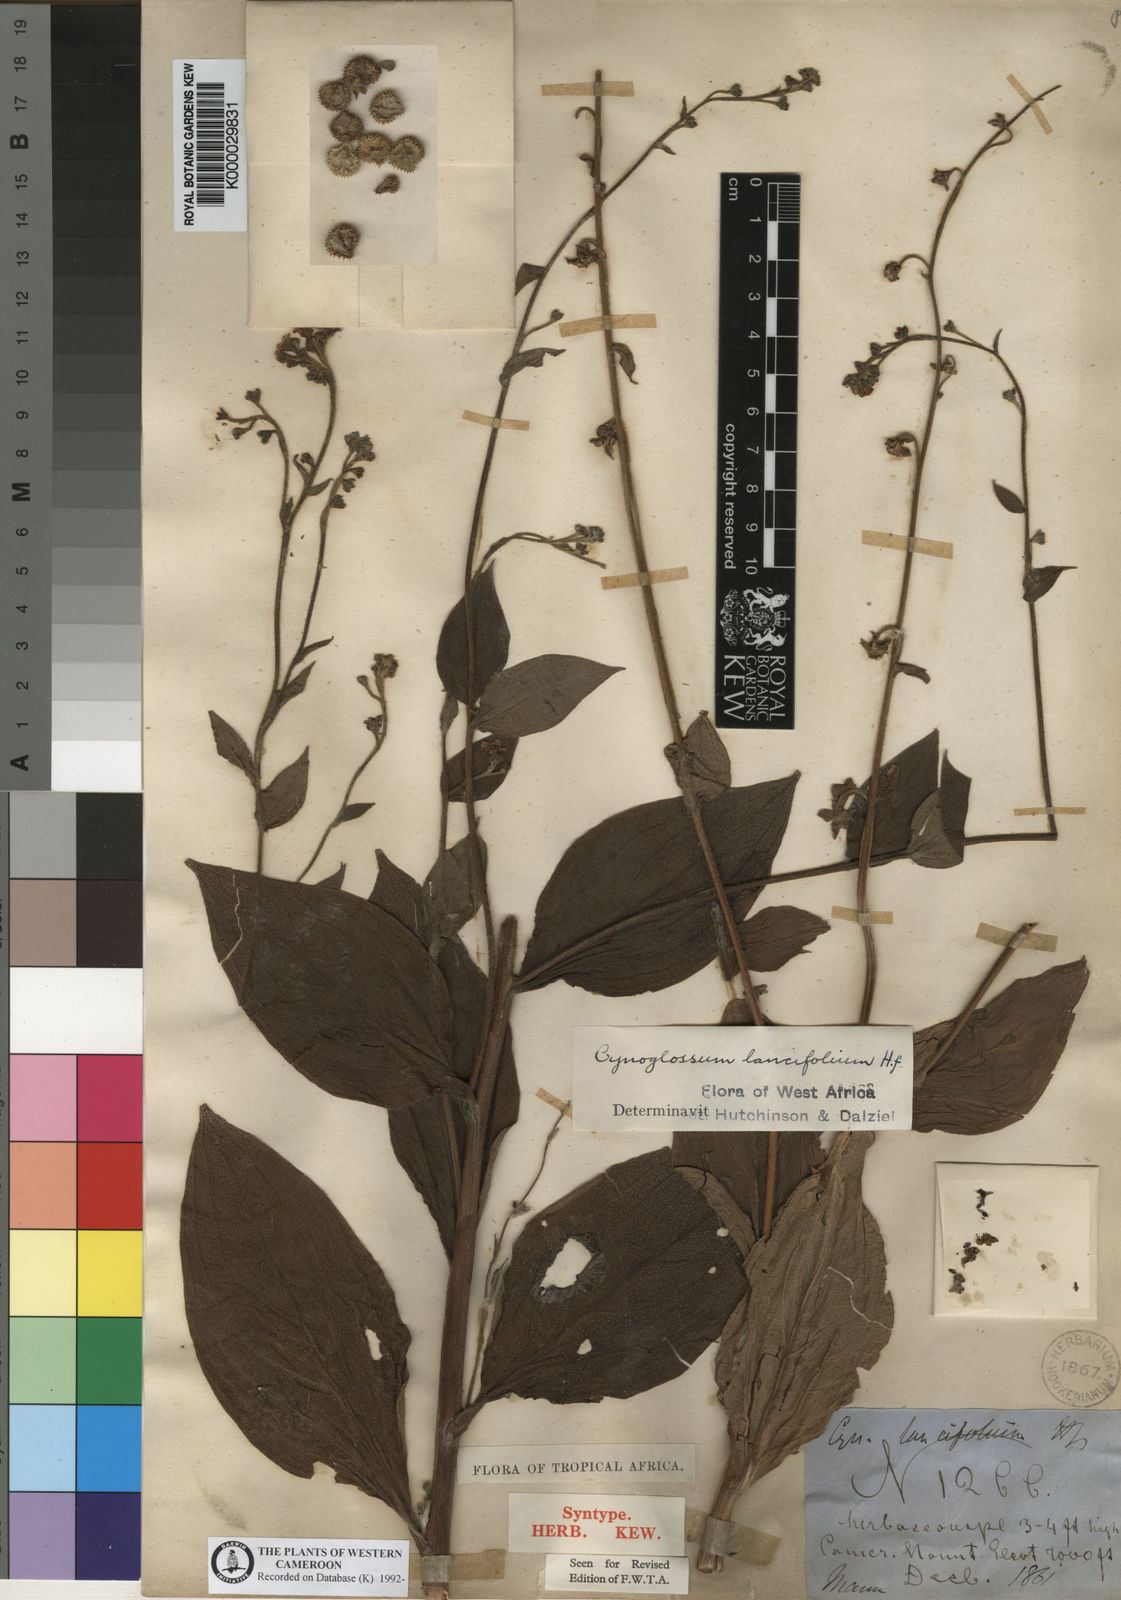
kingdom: Plantae
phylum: Tracheophyta
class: Magnoliopsida
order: Boraginales
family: Boraginaceae
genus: Cynoglossum
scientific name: Cynoglossum amplifolium
